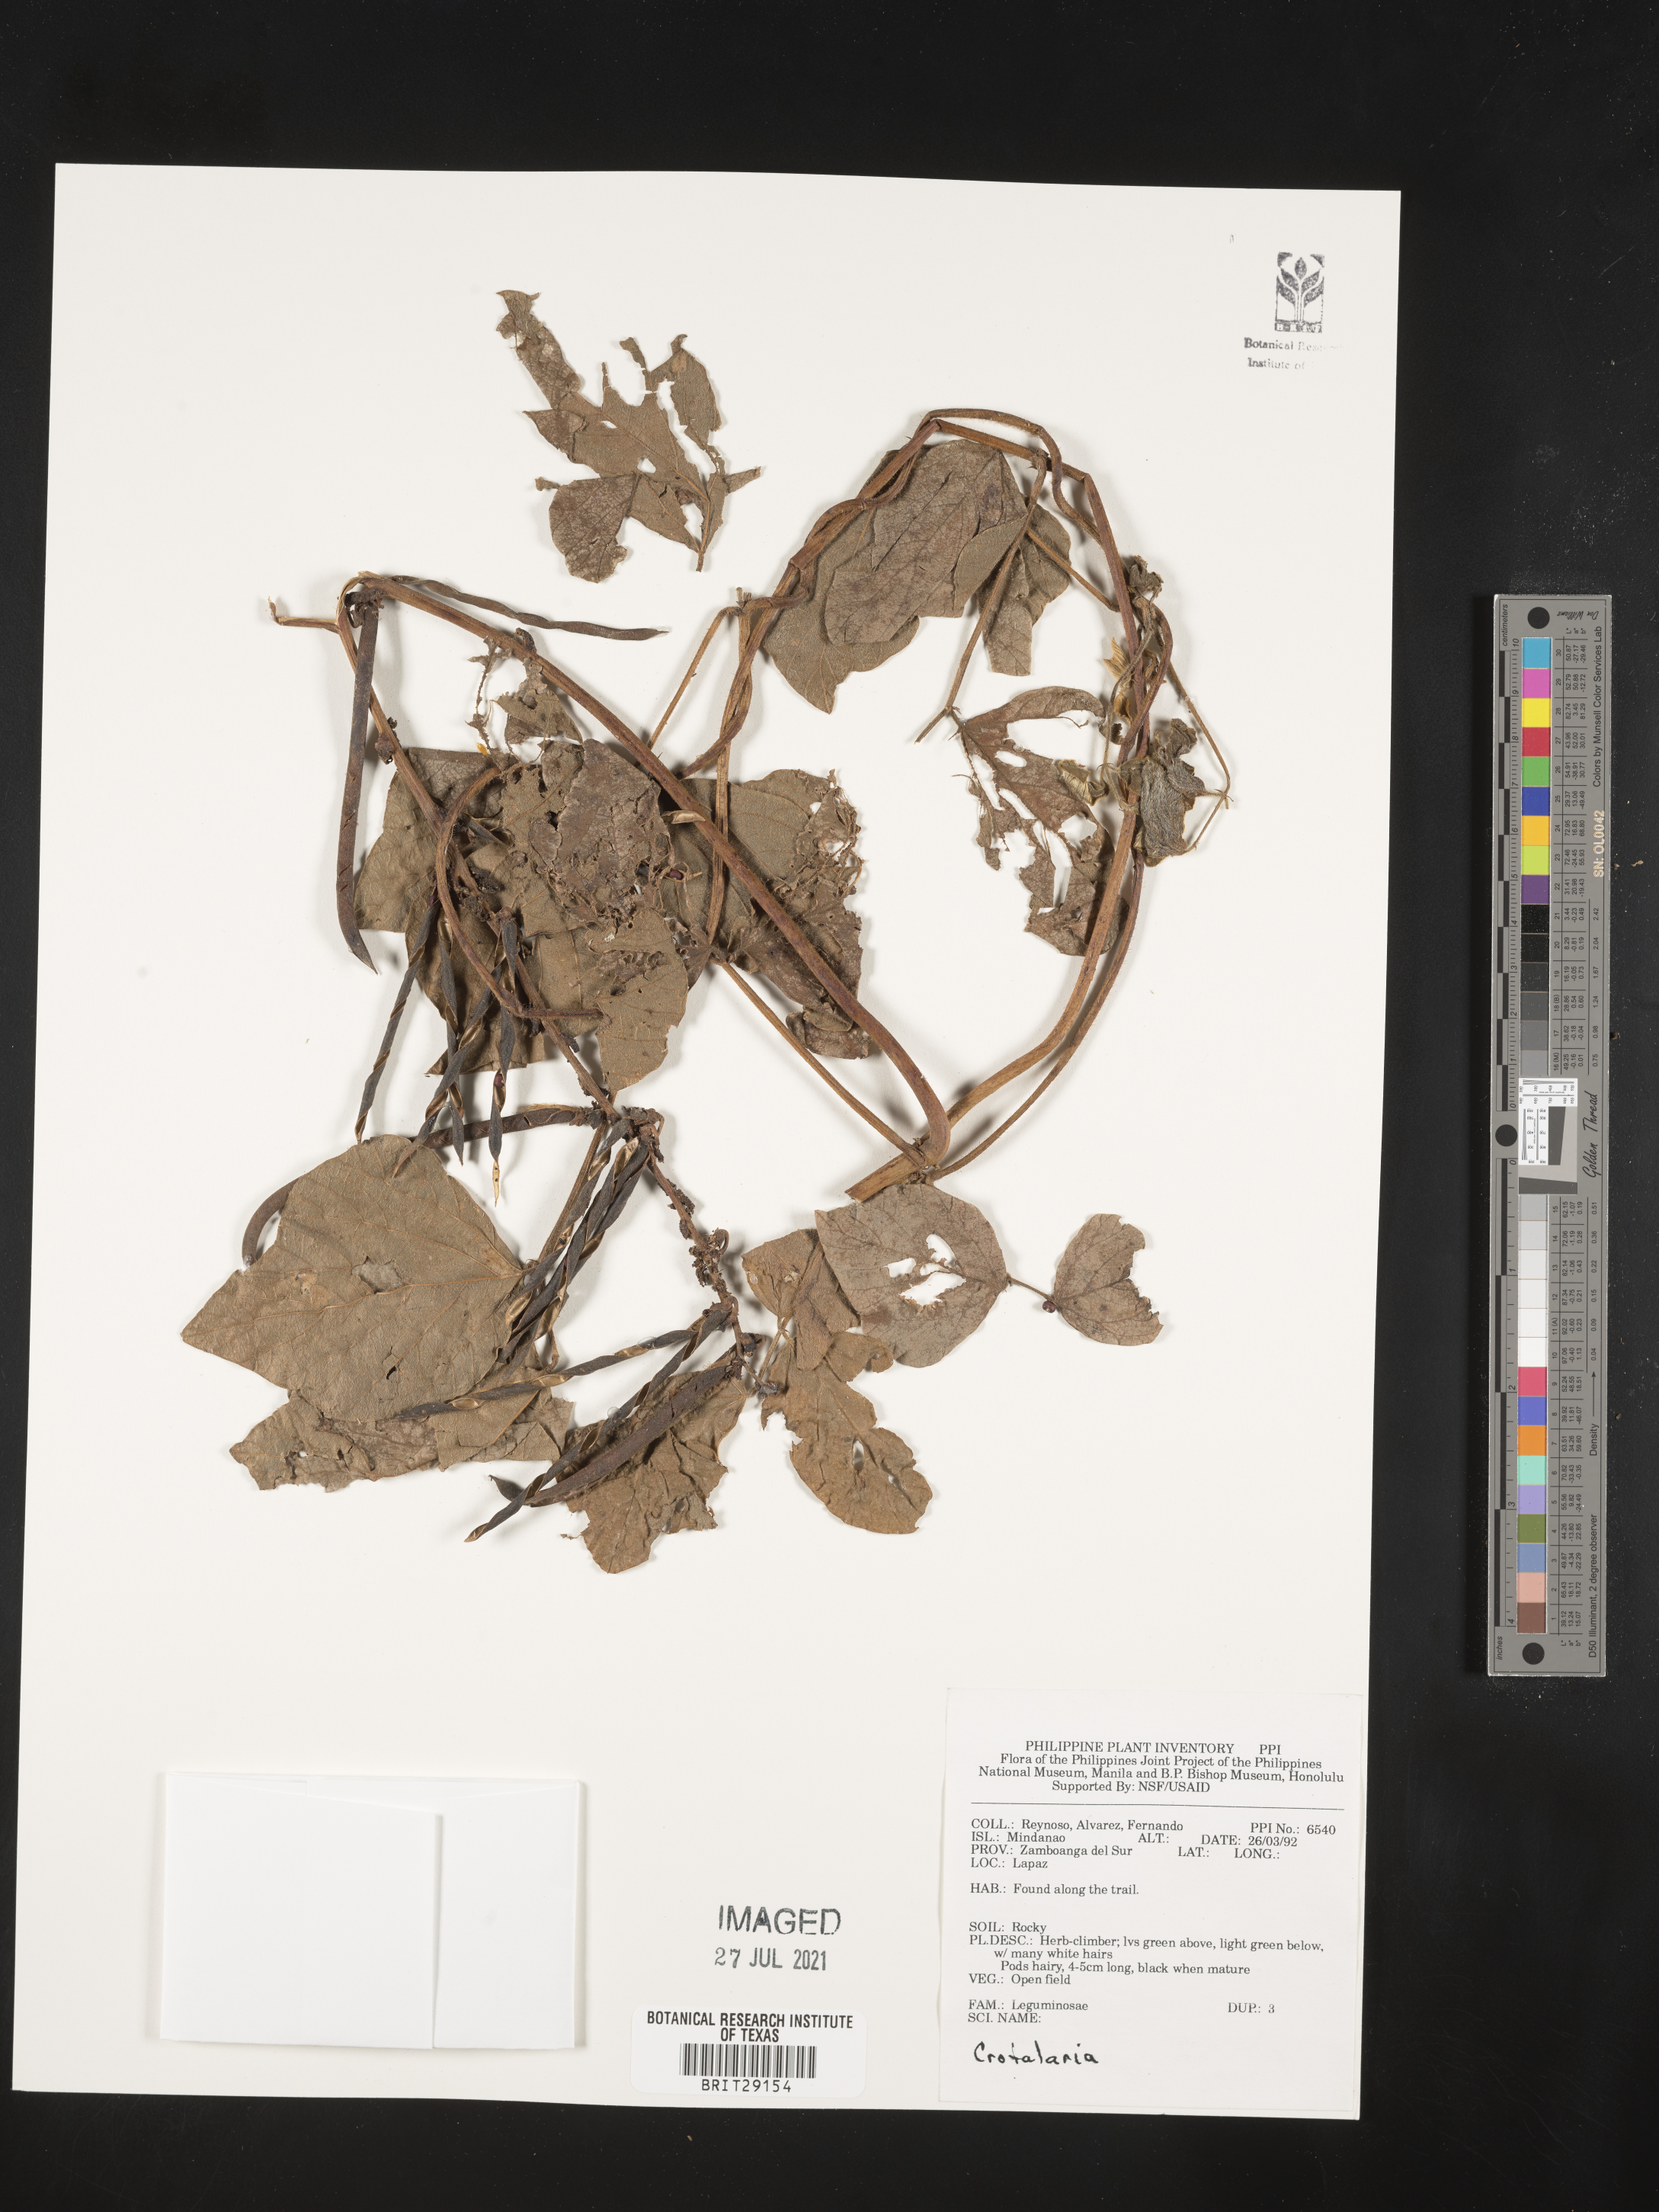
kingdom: Plantae
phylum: Tracheophyta
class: Magnoliopsida
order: Fabales
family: Fabaceae
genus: Crotalaria
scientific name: Crotalaria
